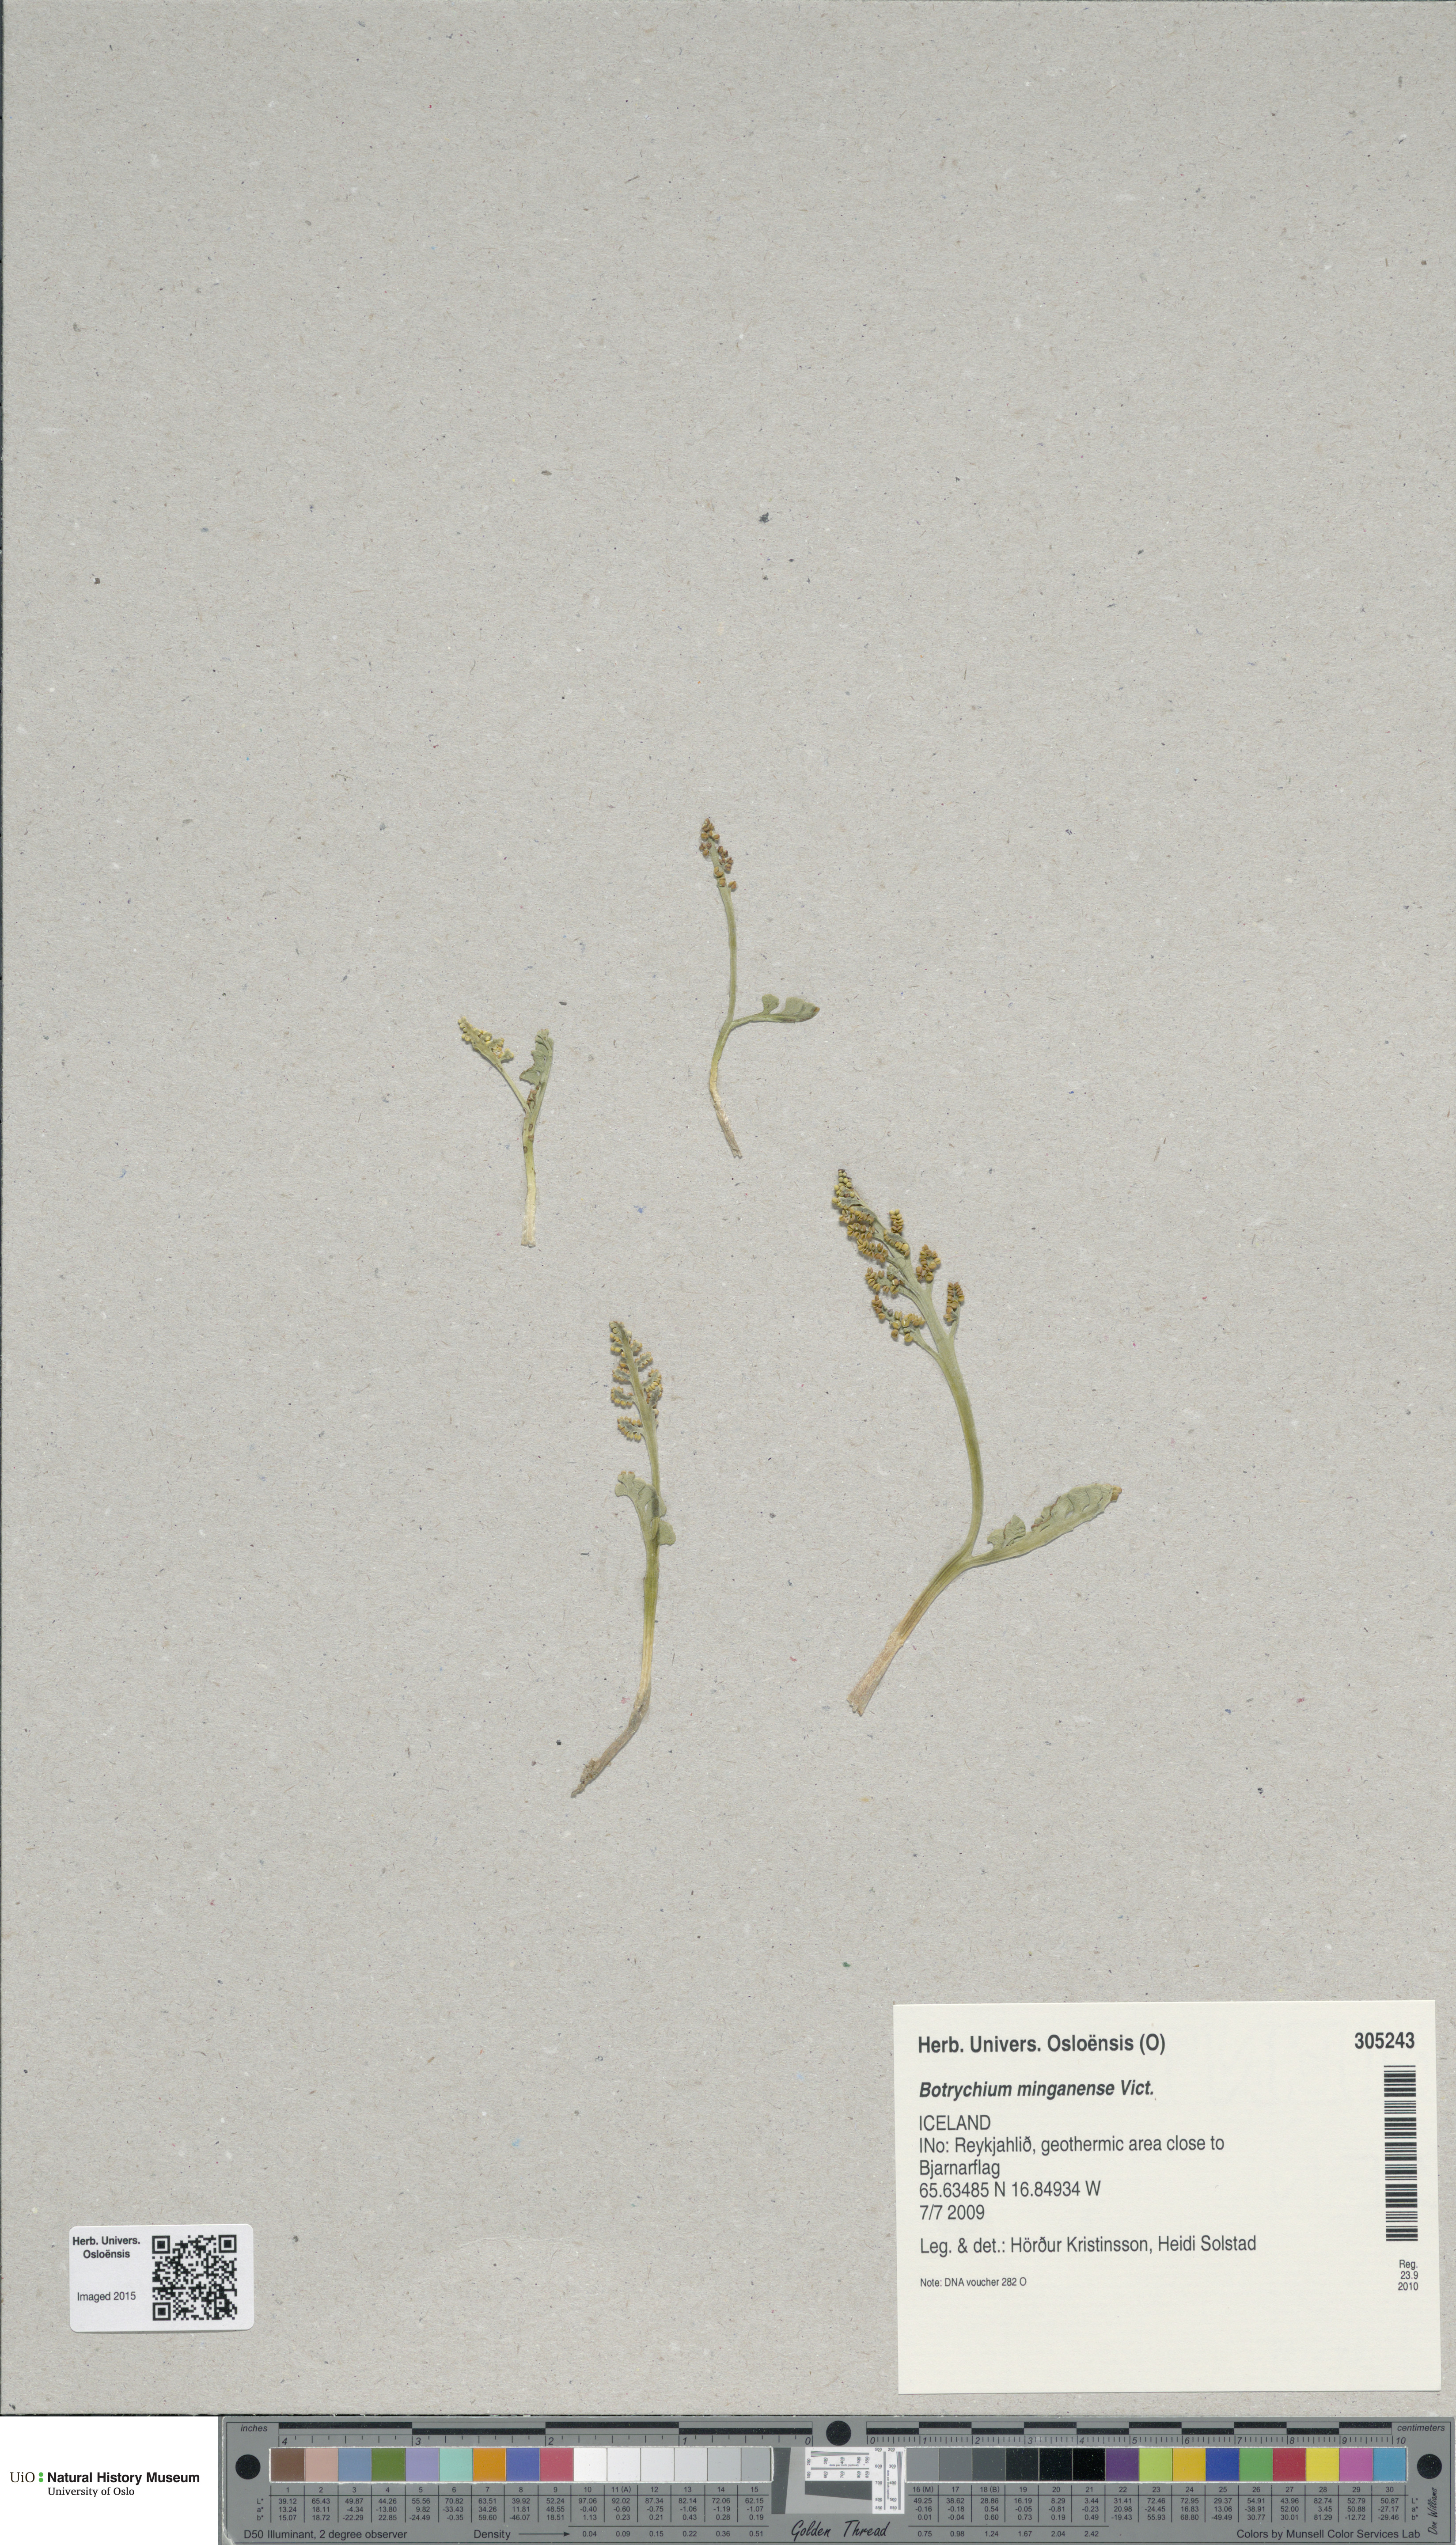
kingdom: Plantae
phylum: Tracheophyta
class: Polypodiopsida
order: Ophioglossales
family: Ophioglossaceae
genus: Botrychium
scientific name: Botrychium minganense
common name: Mingan grapefern
